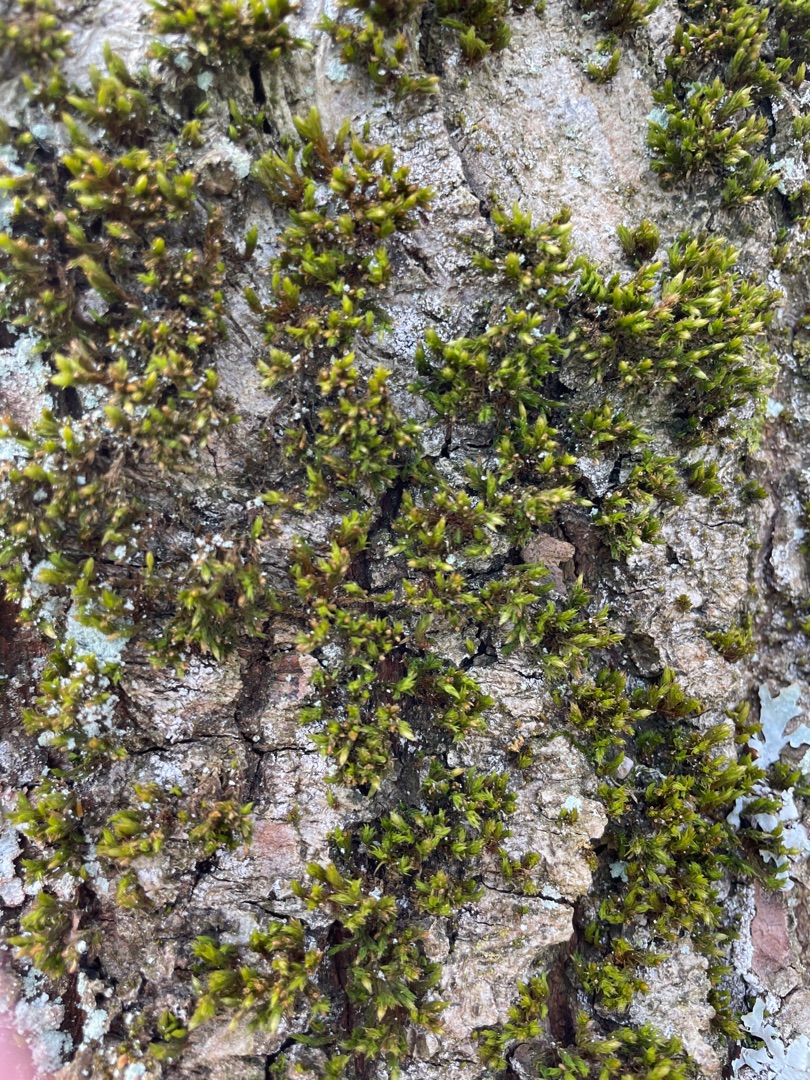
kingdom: Plantae
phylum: Bryophyta
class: Bryopsida
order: Orthotrichales
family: Orthotrichaceae
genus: Lewinskya
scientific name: Lewinskya affinis
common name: Almindelig furehætte
